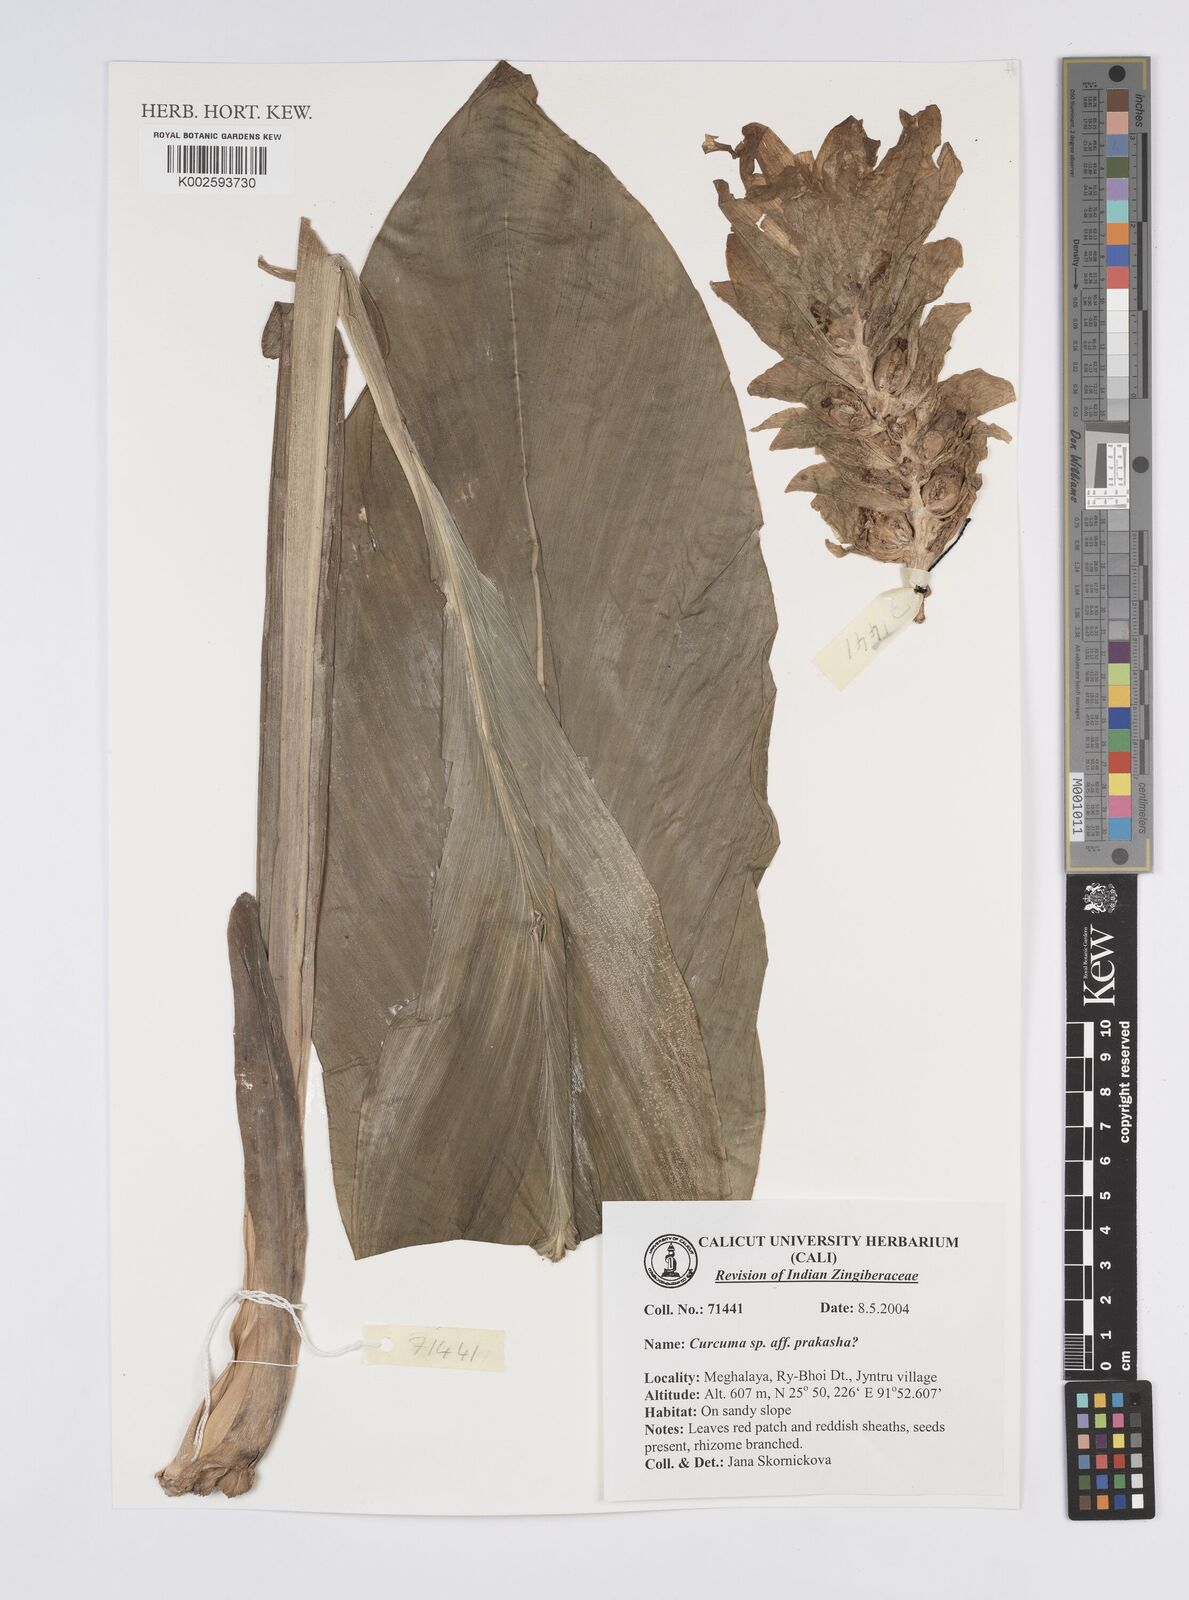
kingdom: Plantae
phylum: Tracheophyta
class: Liliopsida
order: Zingiberales
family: Zingiberaceae
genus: Curcuma
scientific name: Curcuma prakasha
